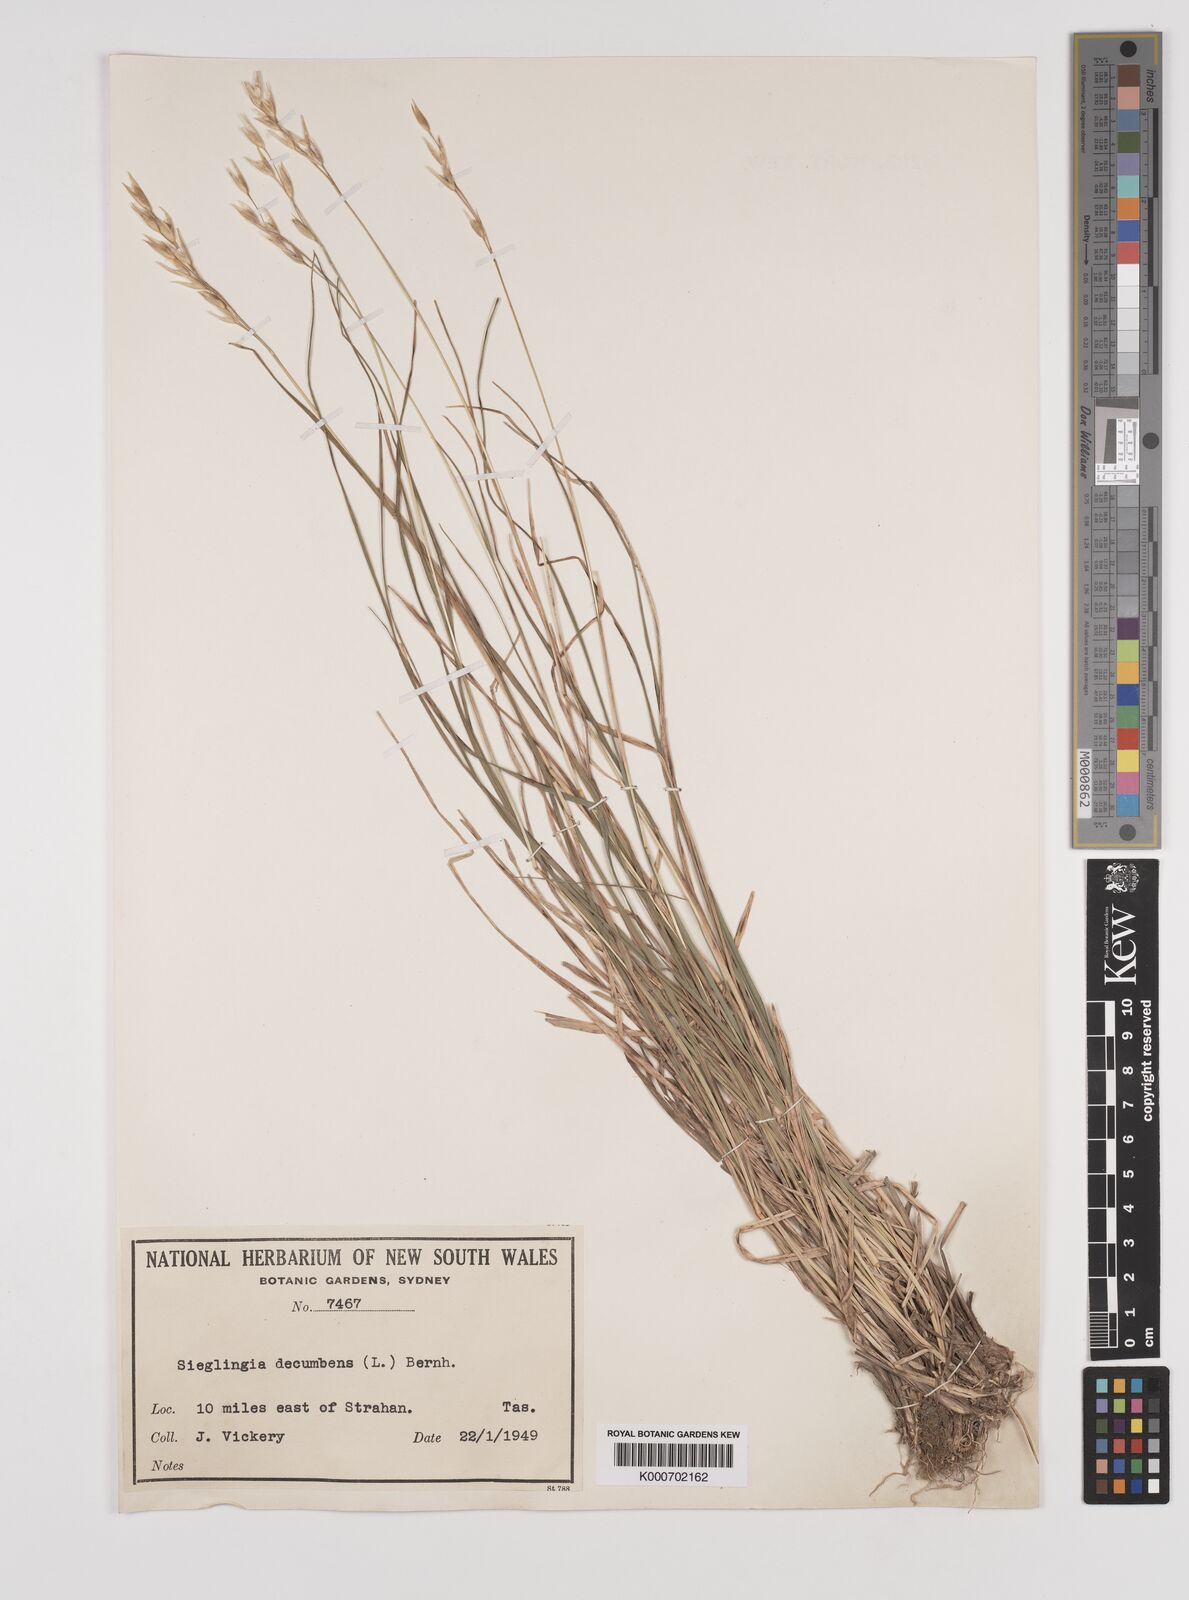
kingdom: Plantae
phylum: Tracheophyta
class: Liliopsida
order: Poales
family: Poaceae
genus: Danthonia
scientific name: Danthonia decumbens
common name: Common heathgrass
